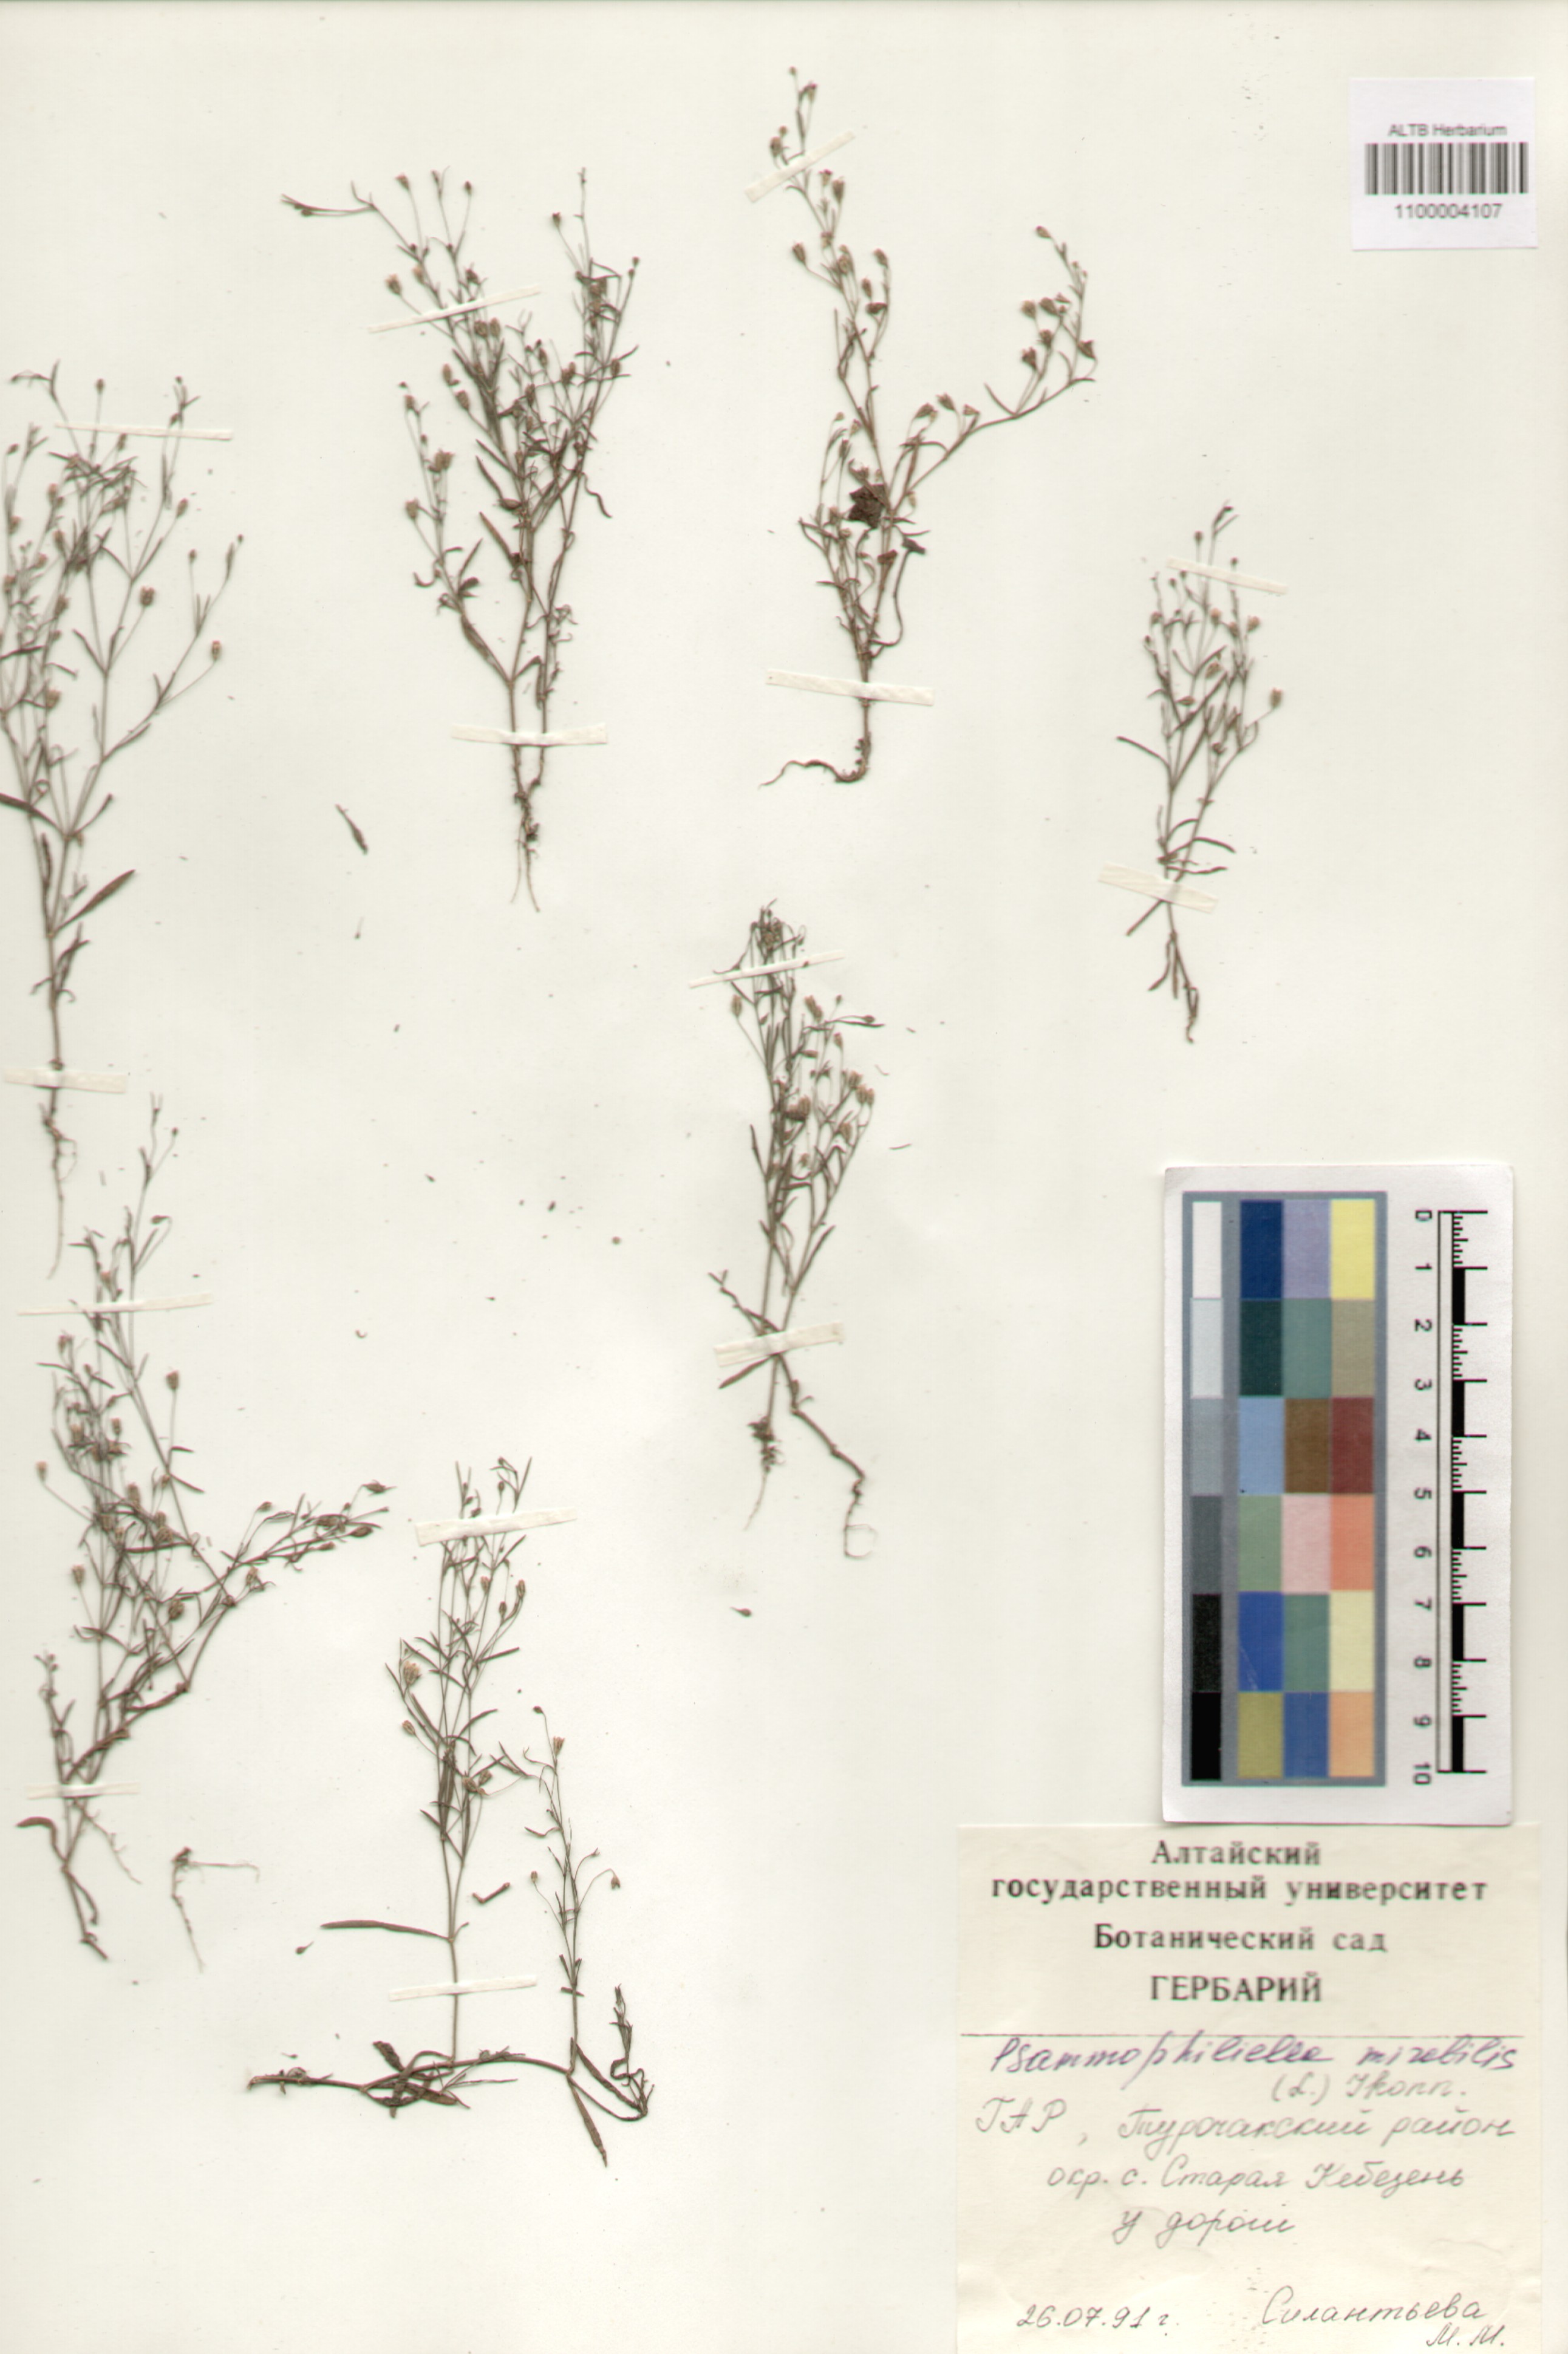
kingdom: Plantae
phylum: Tracheophyta
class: Magnoliopsida
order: Caryophyllales
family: Caryophyllaceae
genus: Psammophiliella
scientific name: Psammophiliella muralis
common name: Cushion baby's-breath
